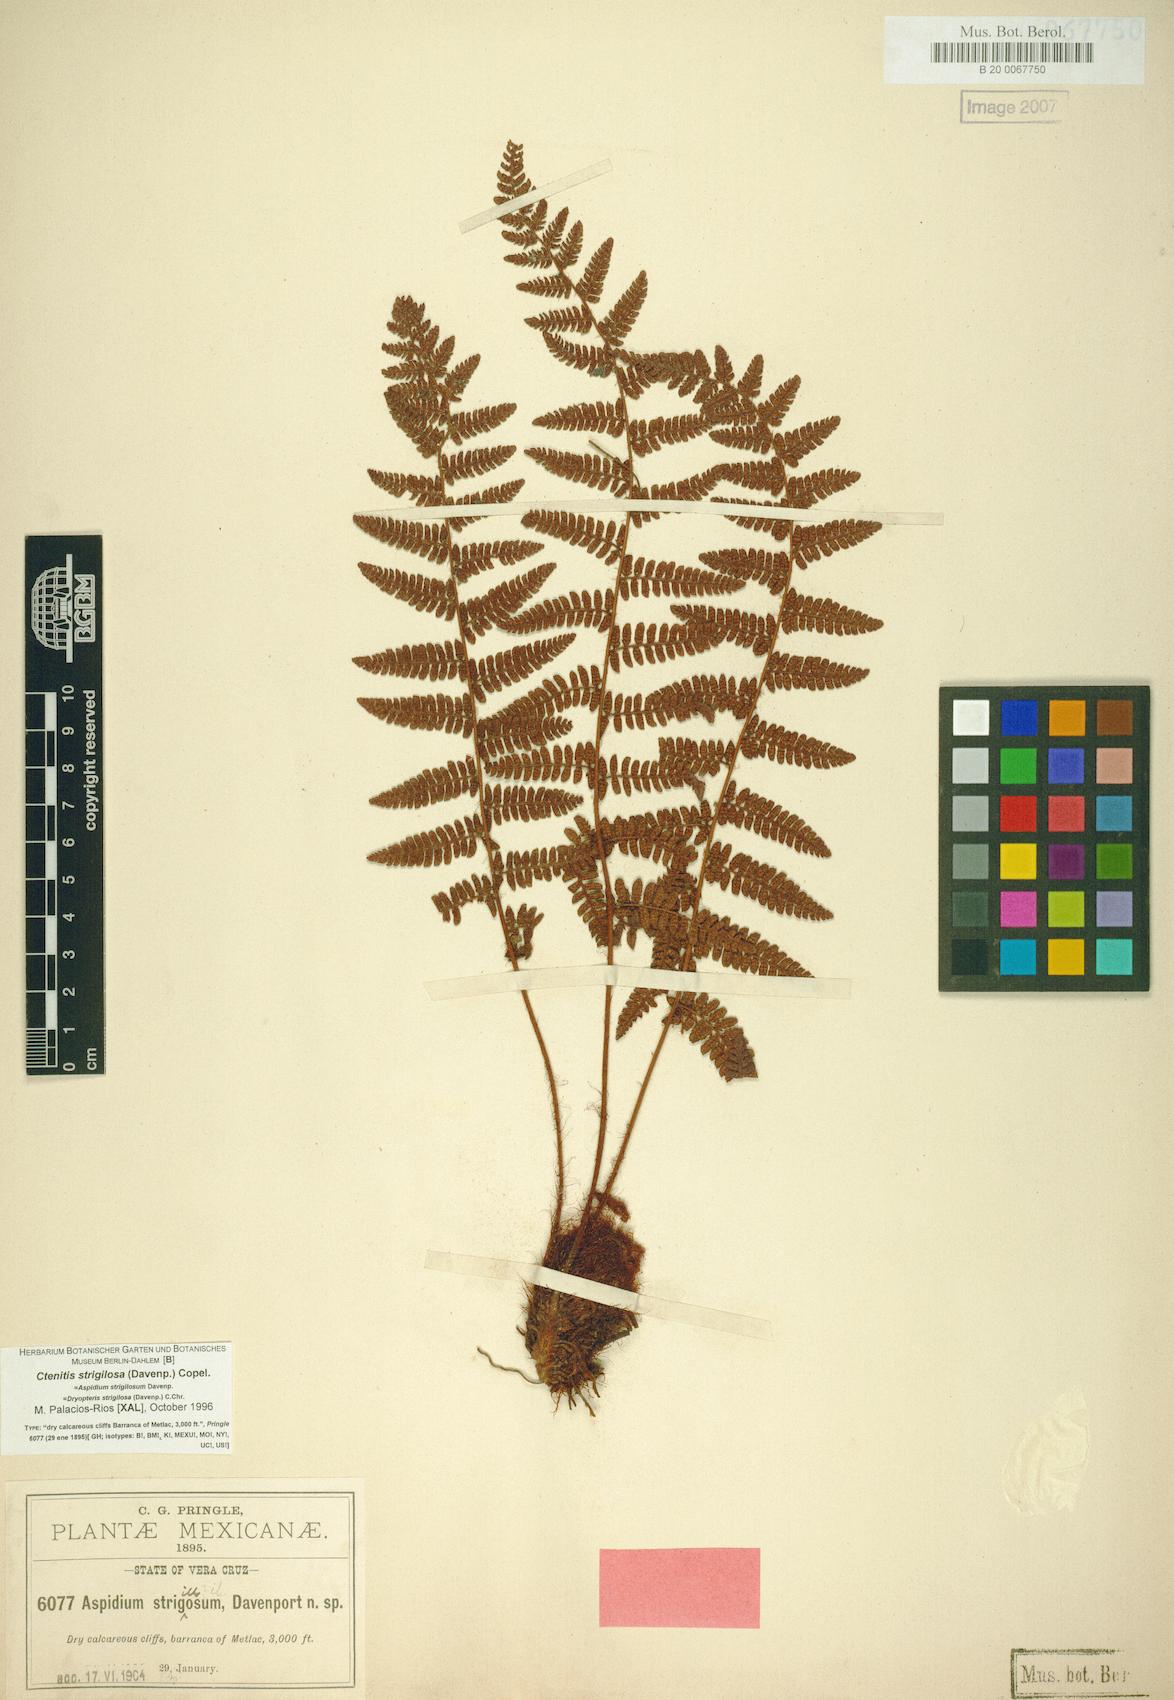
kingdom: Plantae
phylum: Tracheophyta
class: Polypodiopsida
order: Polypodiales
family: Dryopteridaceae
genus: Ctenitis
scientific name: Ctenitis strigilosa
